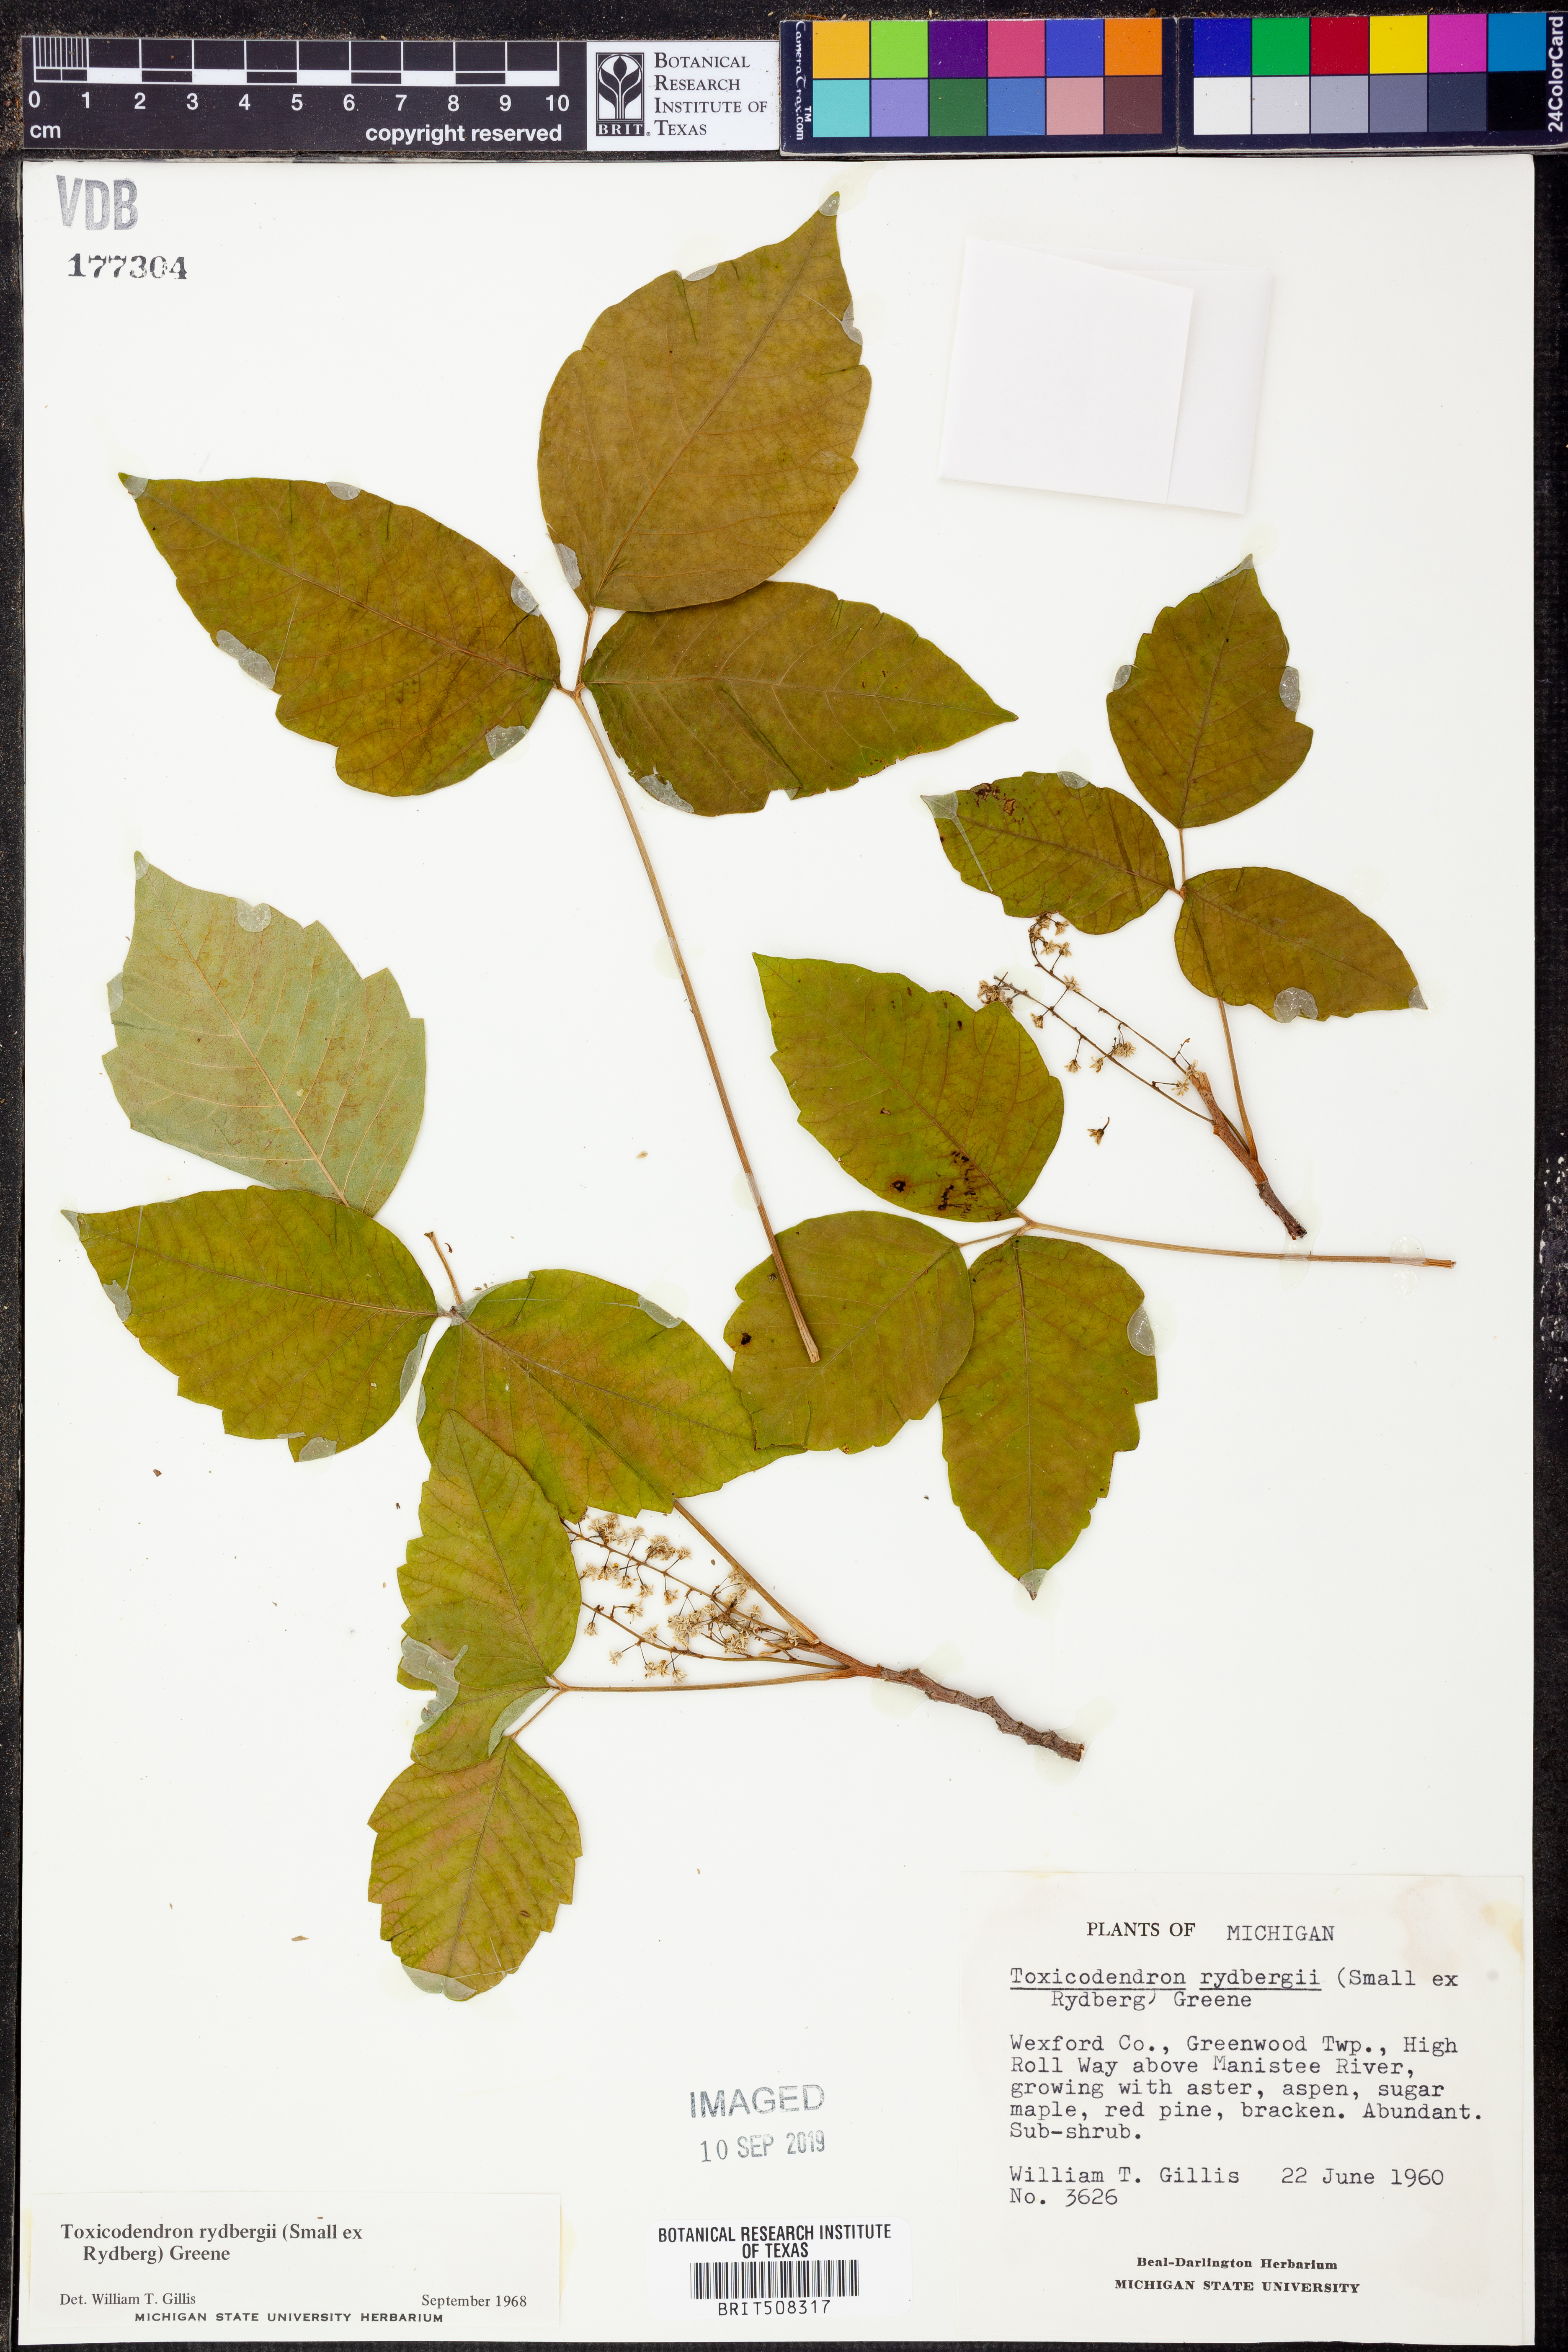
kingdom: Plantae
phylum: Tracheophyta
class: Magnoliopsida
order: Sapindales
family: Anacardiaceae
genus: Toxicodendron
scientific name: Toxicodendron rydbergii
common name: Rydberg's poison-ivy
